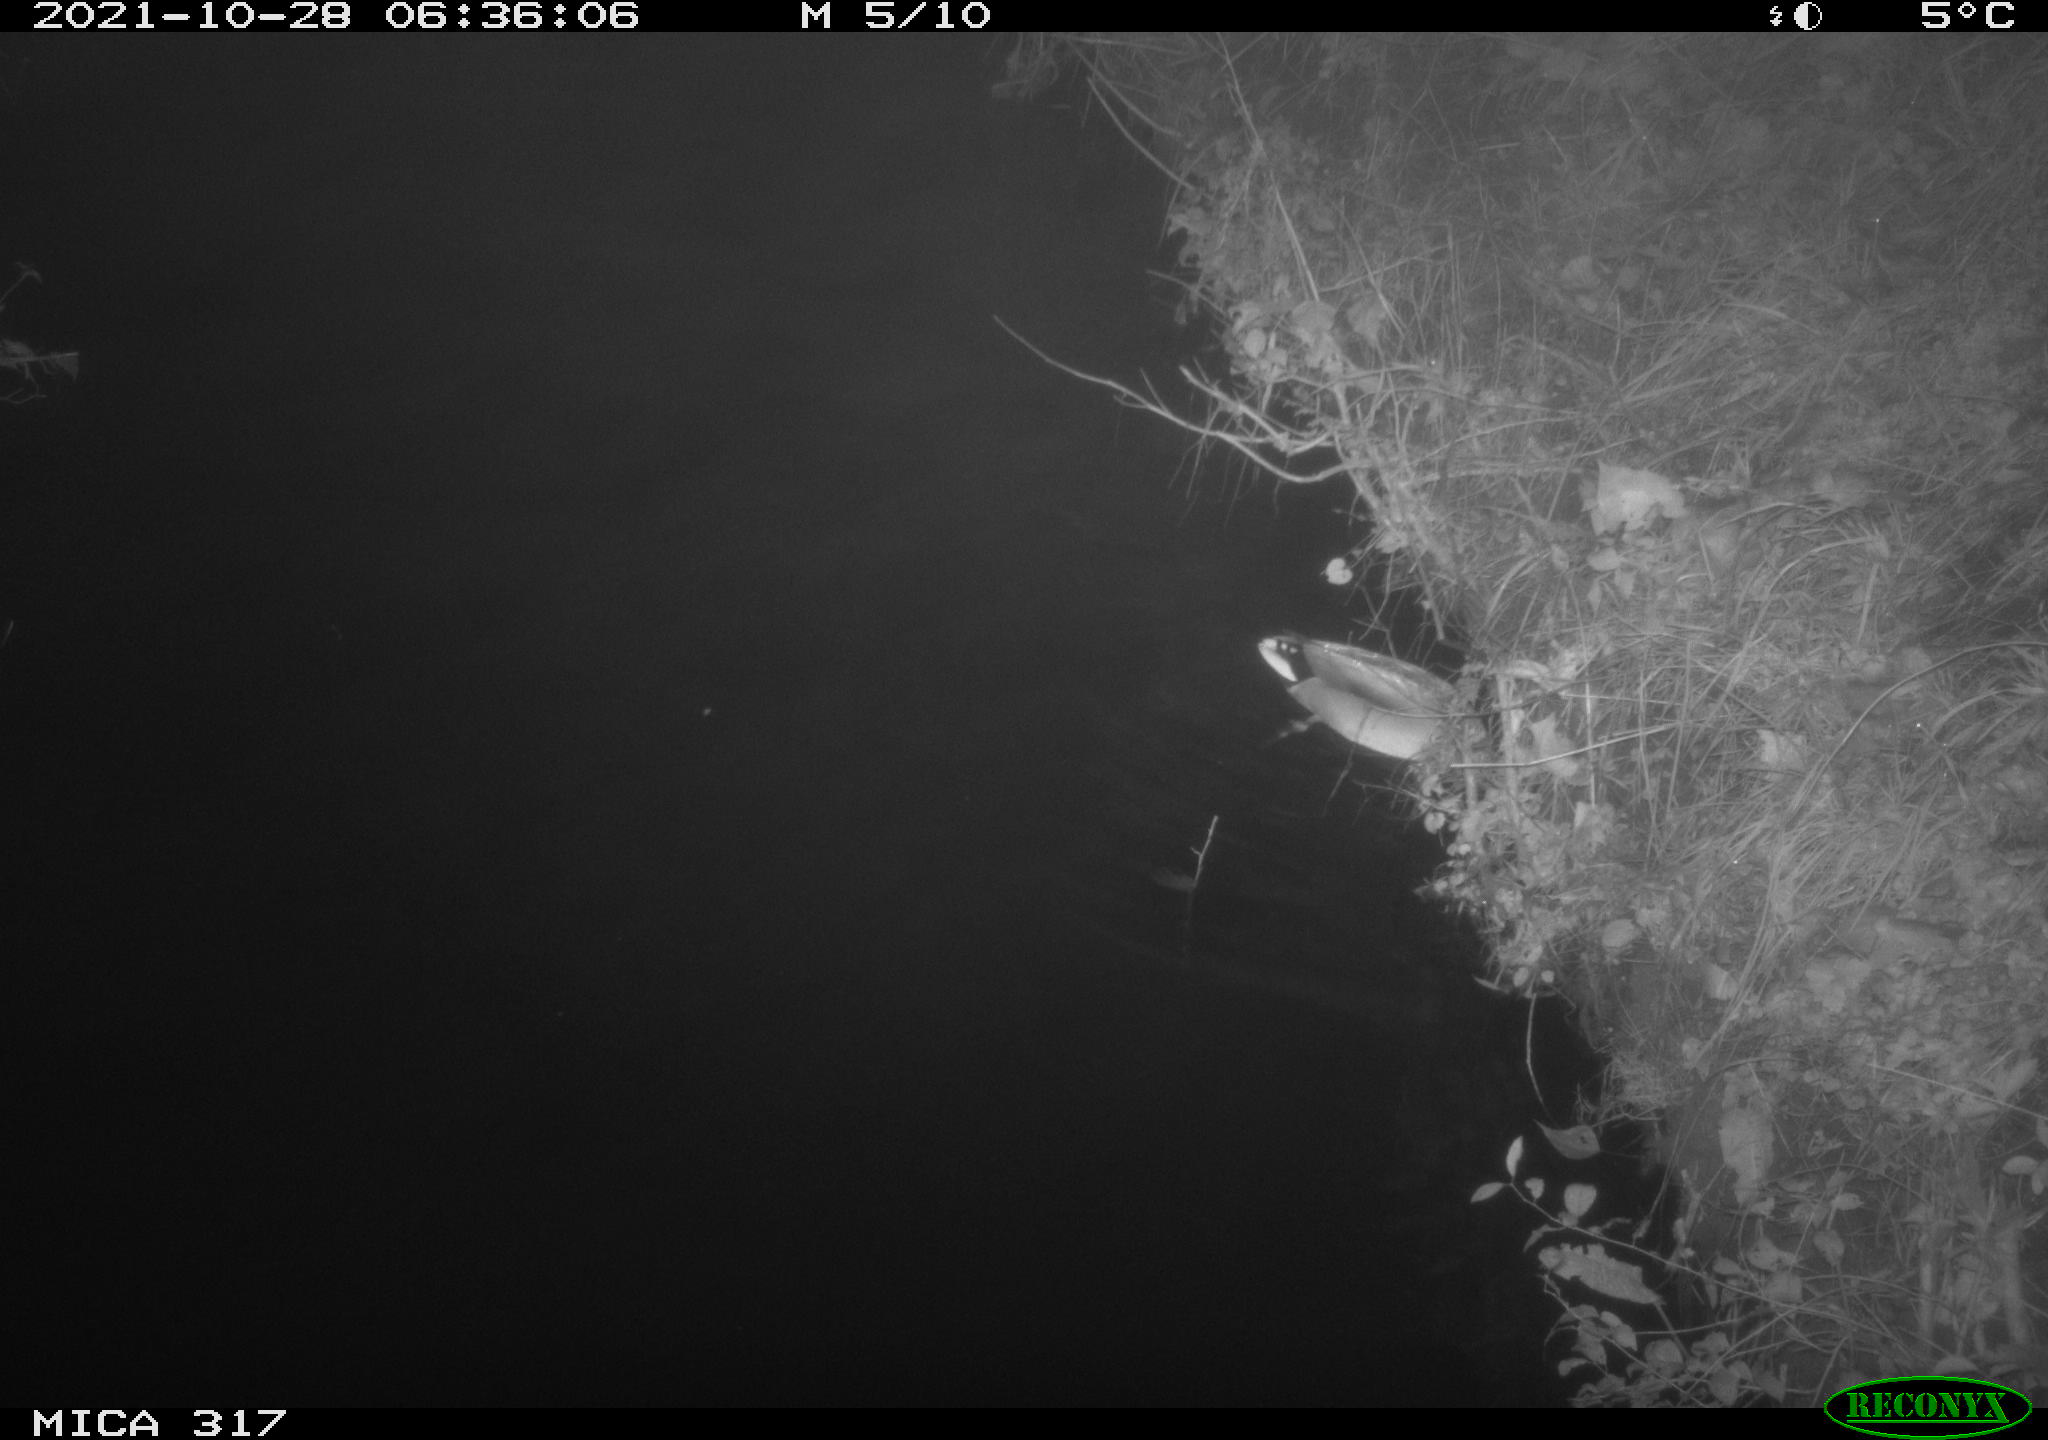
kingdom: Animalia
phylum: Chordata
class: Aves
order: Anseriformes
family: Anatidae
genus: Anas
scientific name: Anas platyrhynchos
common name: Mallard
